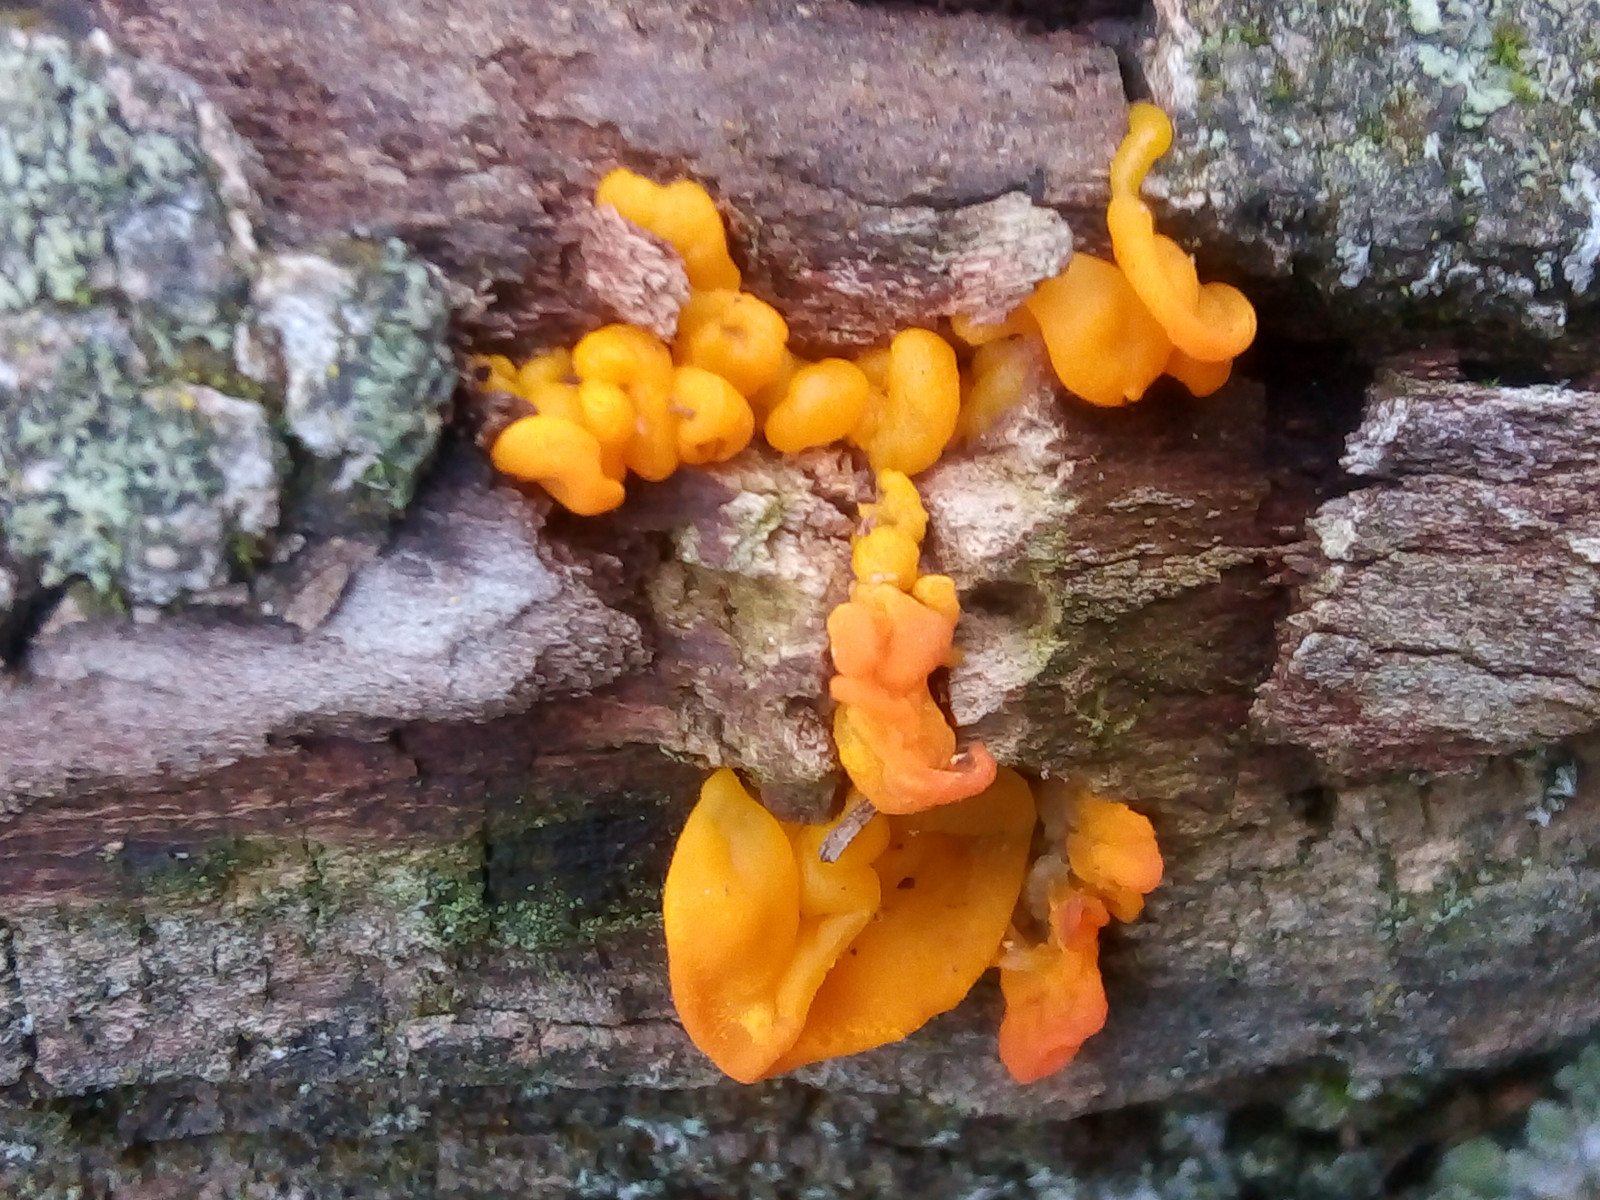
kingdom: Fungi
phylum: Basidiomycota
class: Tremellomycetes
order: Tremellales
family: Tremellaceae
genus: Tremella
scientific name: Tremella mesenterica
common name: gul bævresvamp
